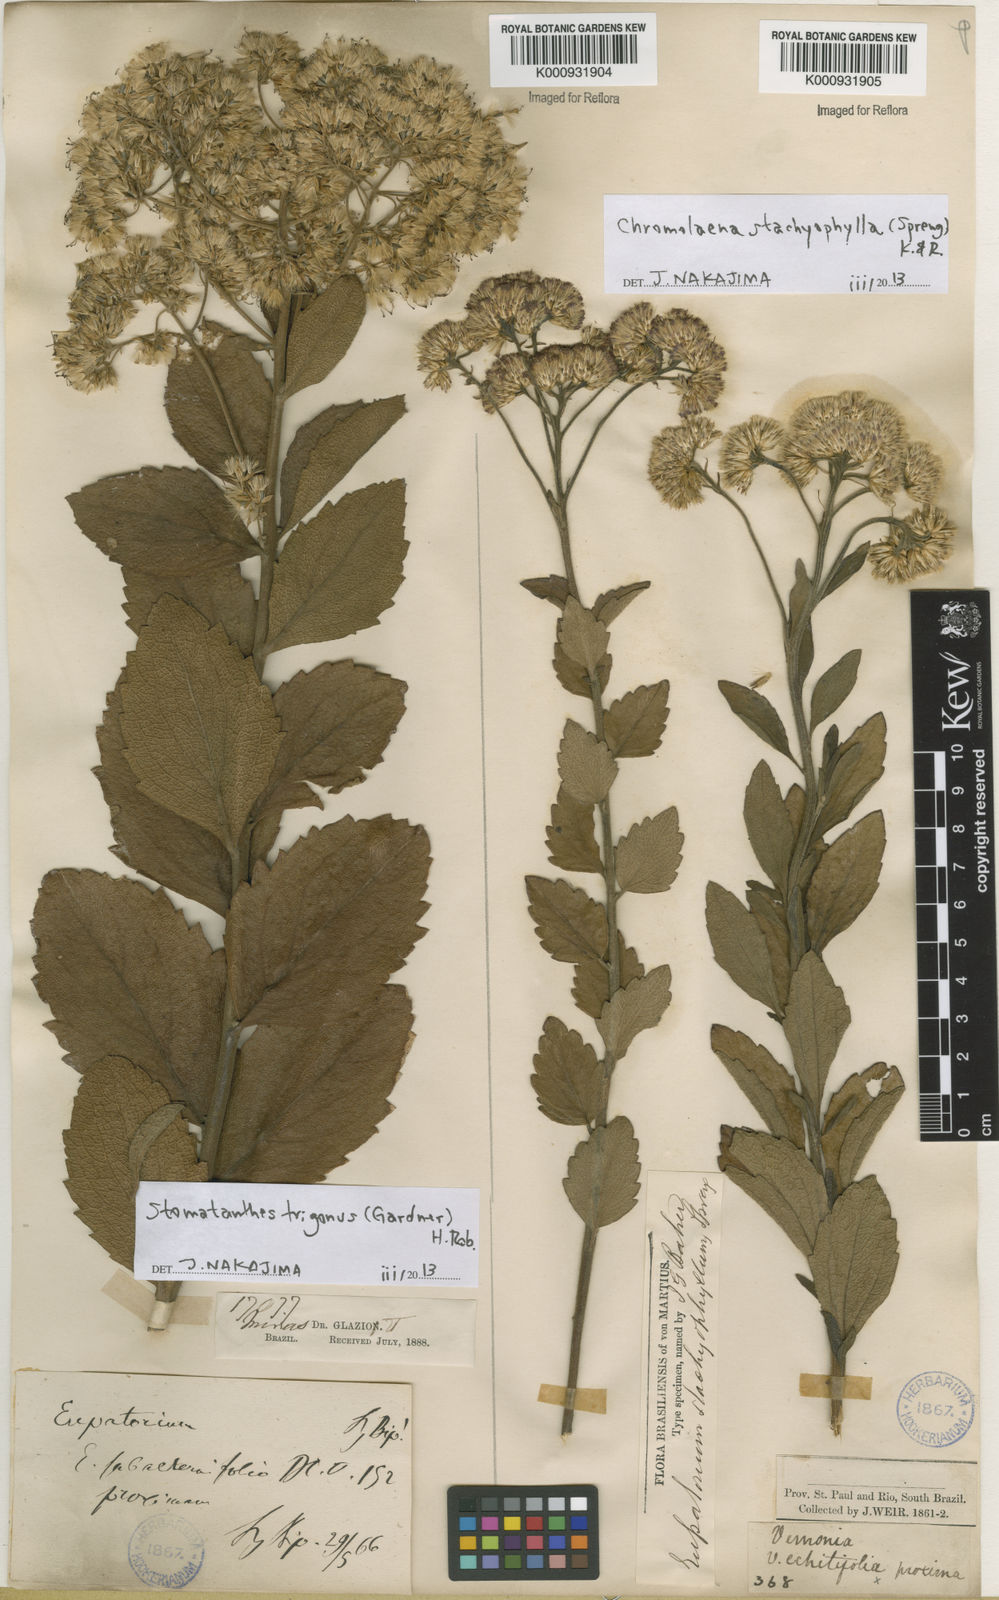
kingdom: Plantae
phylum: Tracheophyta
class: Magnoliopsida
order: Asterales
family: Asteraceae
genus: Stomatanthes
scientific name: Stomatanthes trigonus
